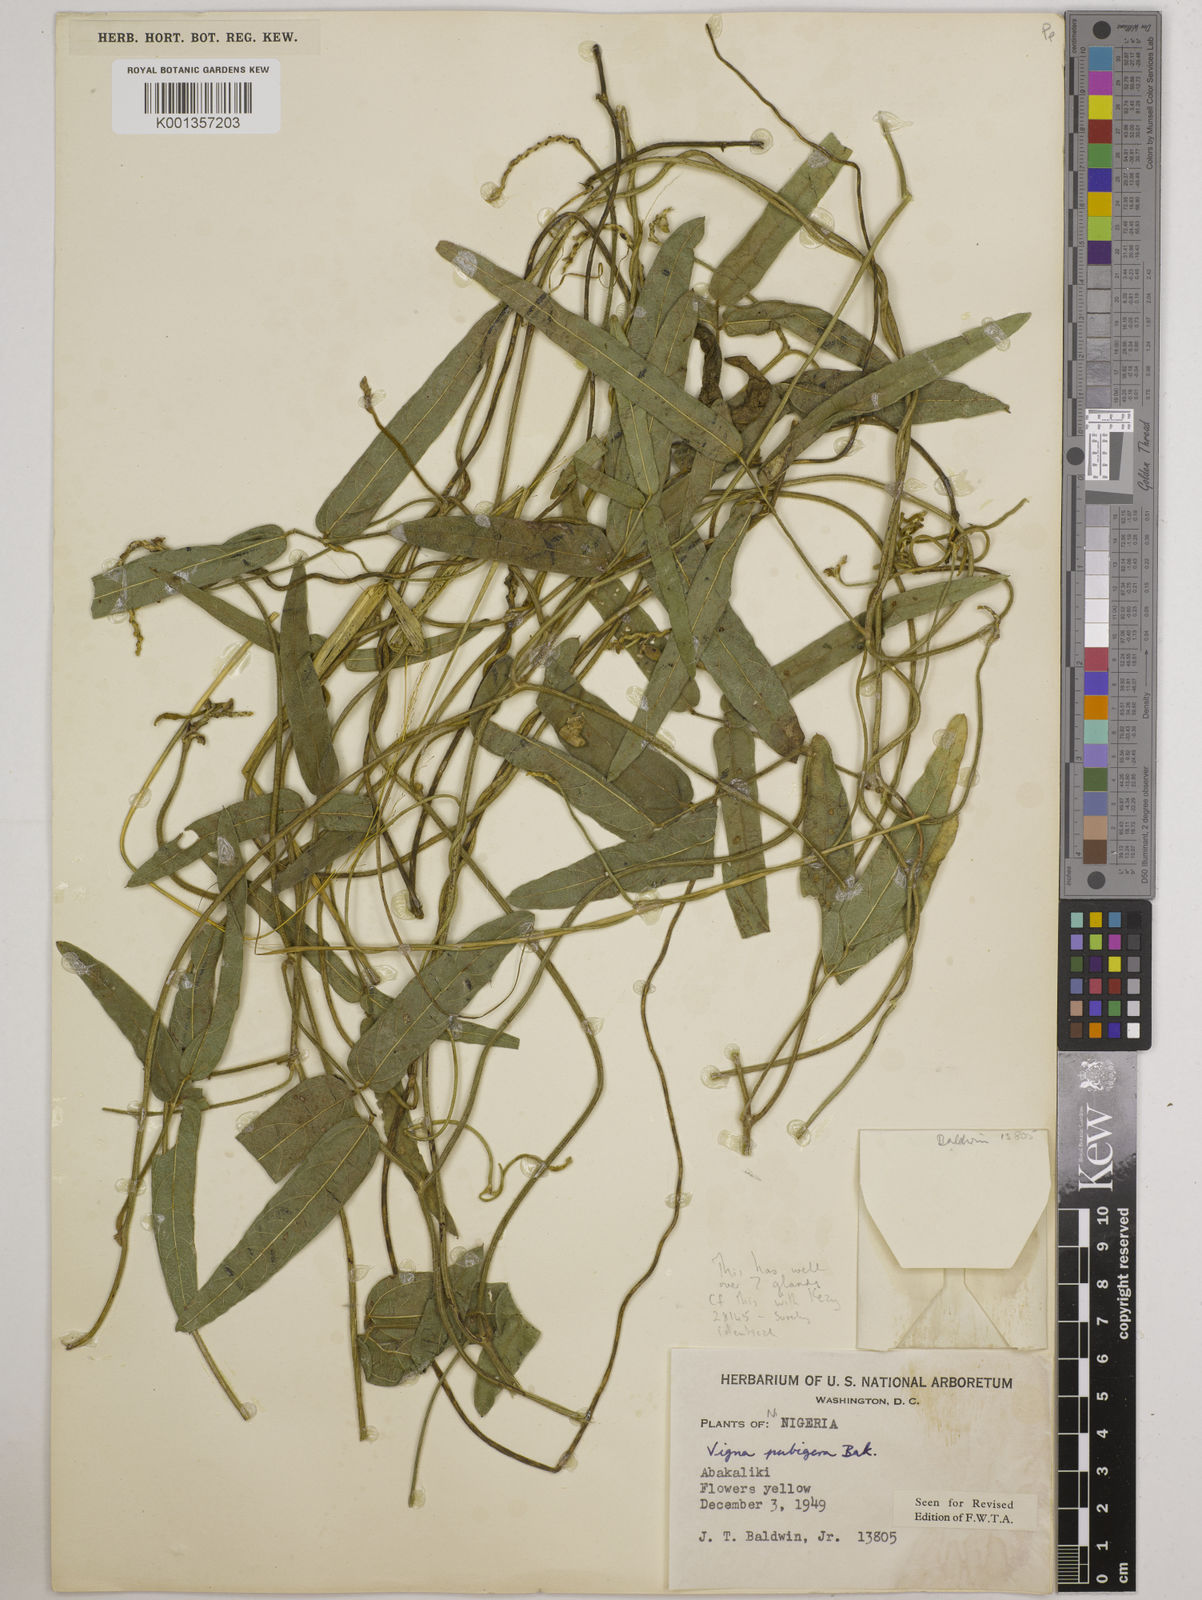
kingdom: Plantae
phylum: Tracheophyta
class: Magnoliopsida
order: Fabales
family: Fabaceae
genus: Vigna
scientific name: Vigna ambacensis
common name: Tsarkiyan zomo
